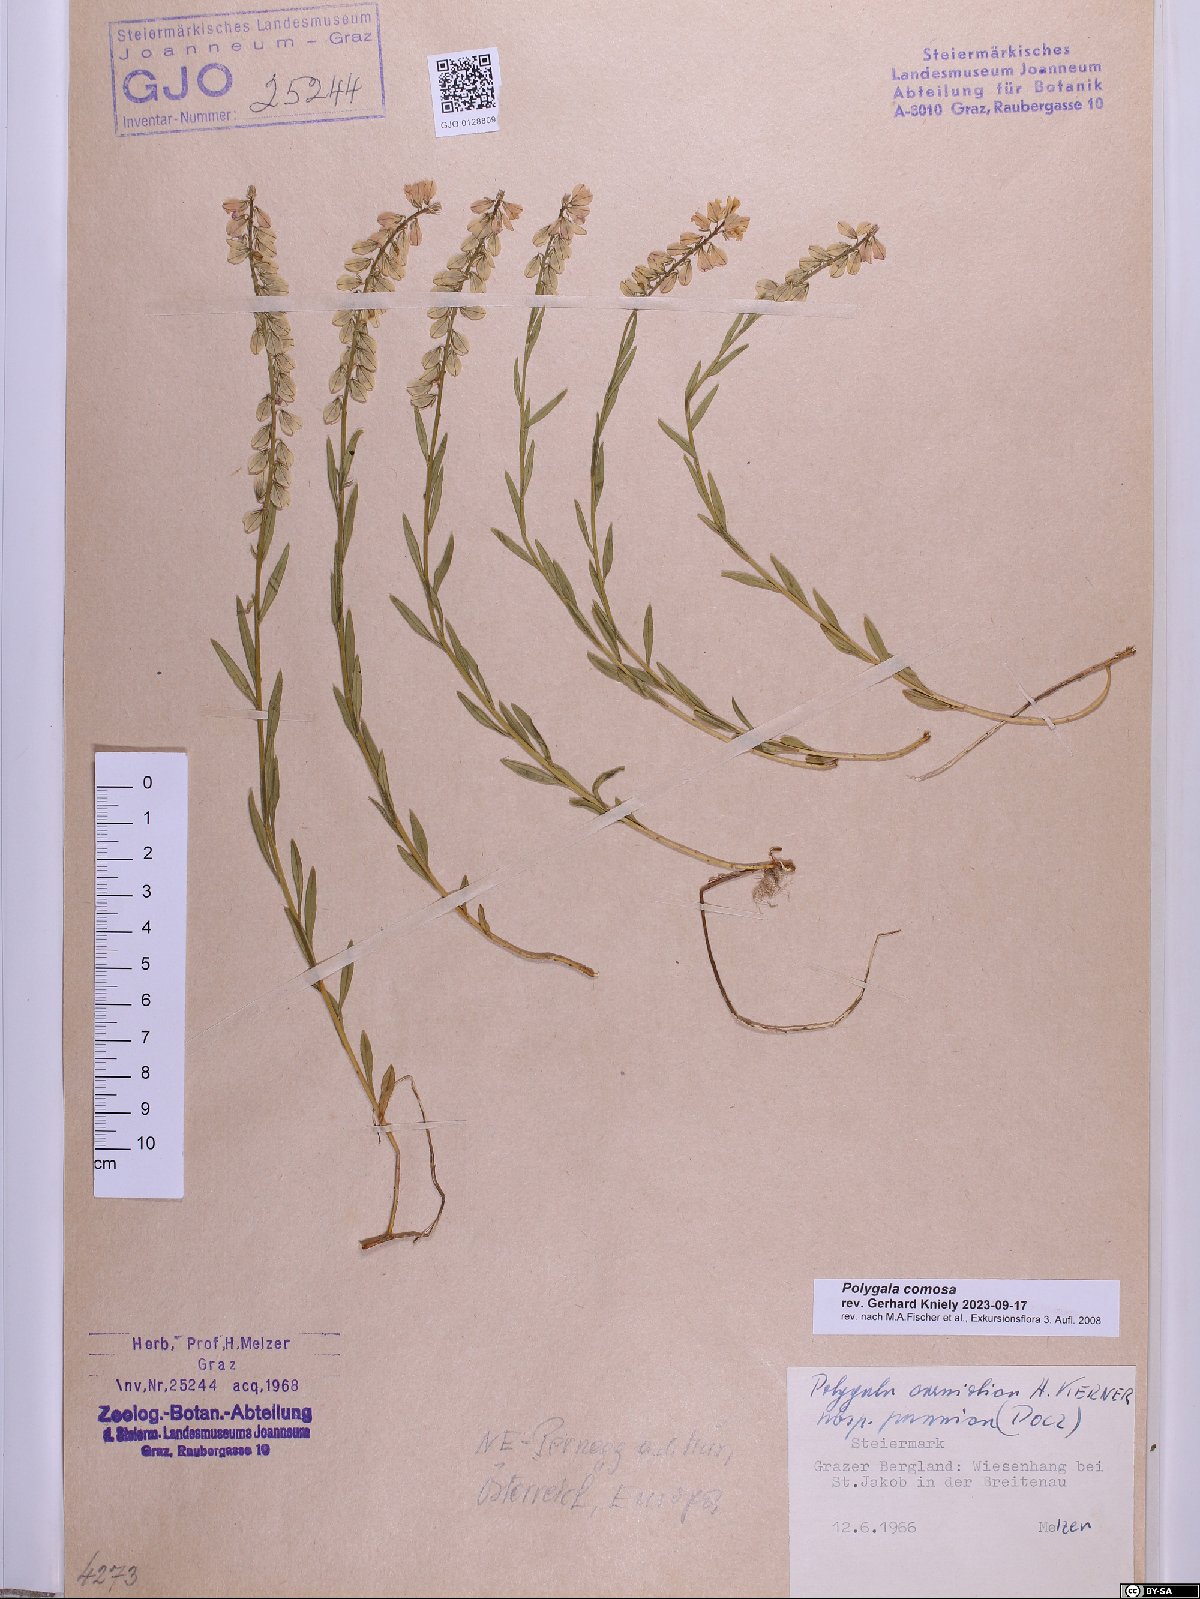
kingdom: Plantae
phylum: Tracheophyta
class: Magnoliopsida
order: Fabales
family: Polygalaceae
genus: Polygala
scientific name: Polygala comosa
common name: Tufted milkwort
